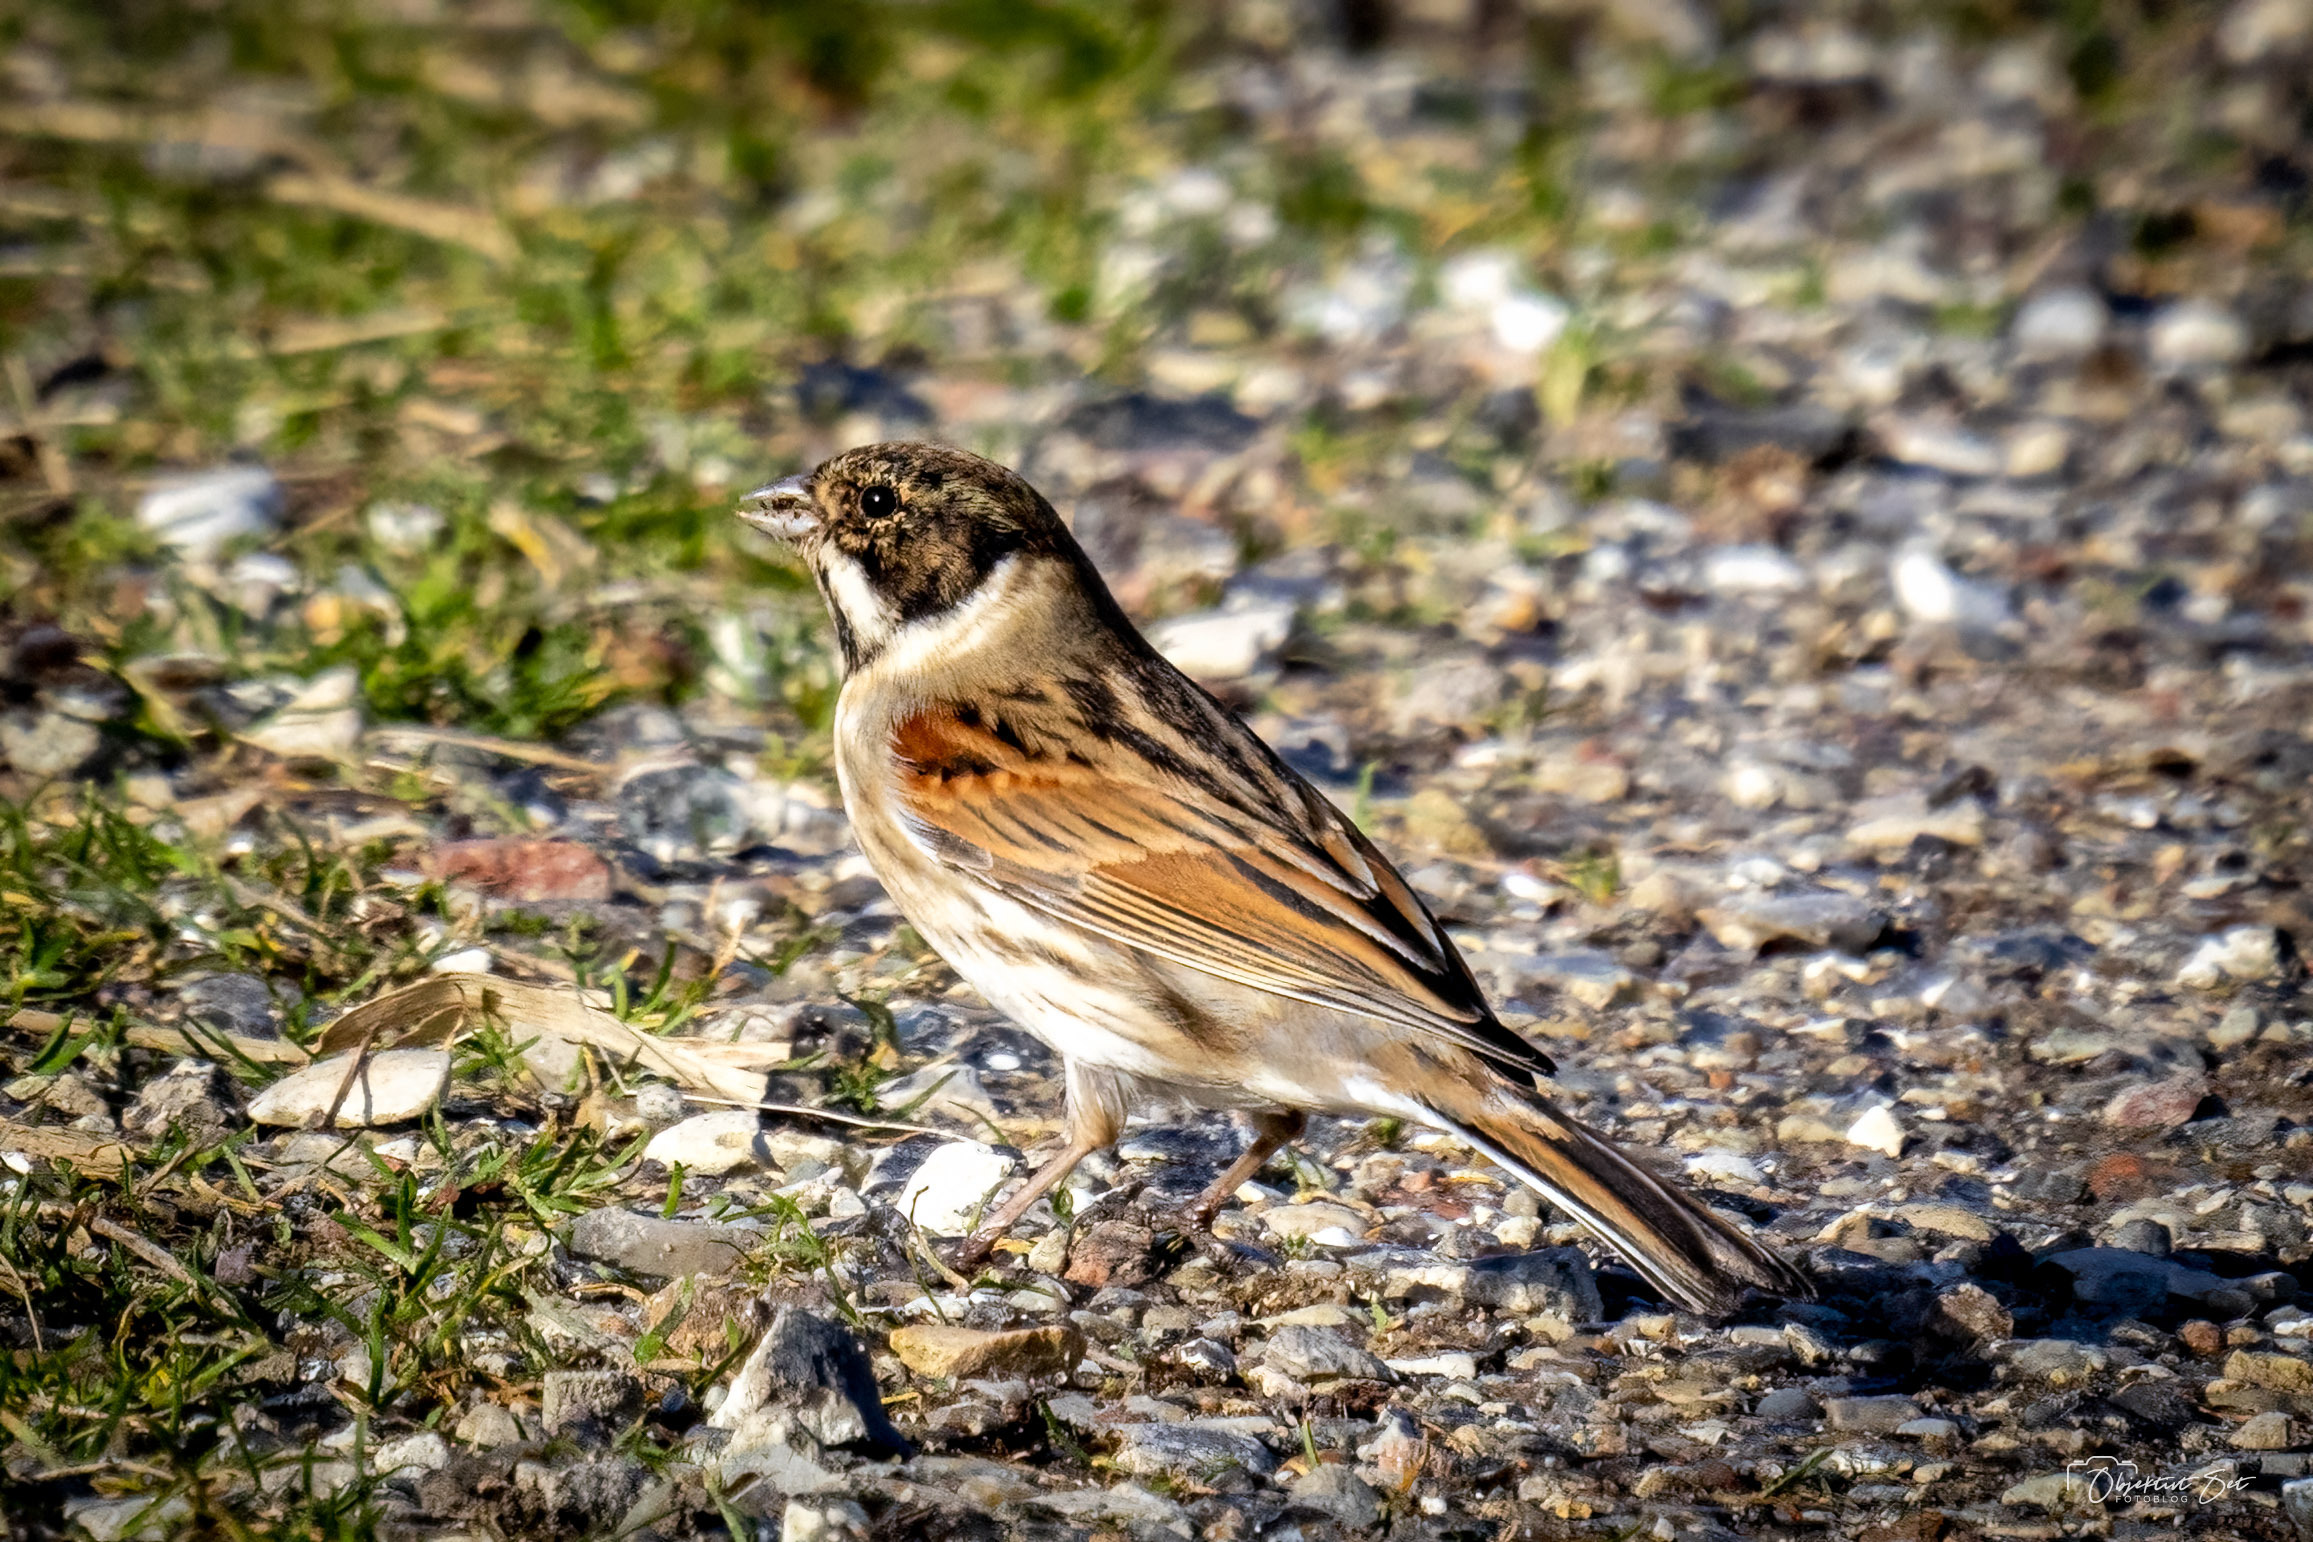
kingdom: Animalia
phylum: Chordata
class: Aves
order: Passeriformes
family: Emberizidae
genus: Emberiza
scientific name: Emberiza schoeniclus
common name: Rørspurv
